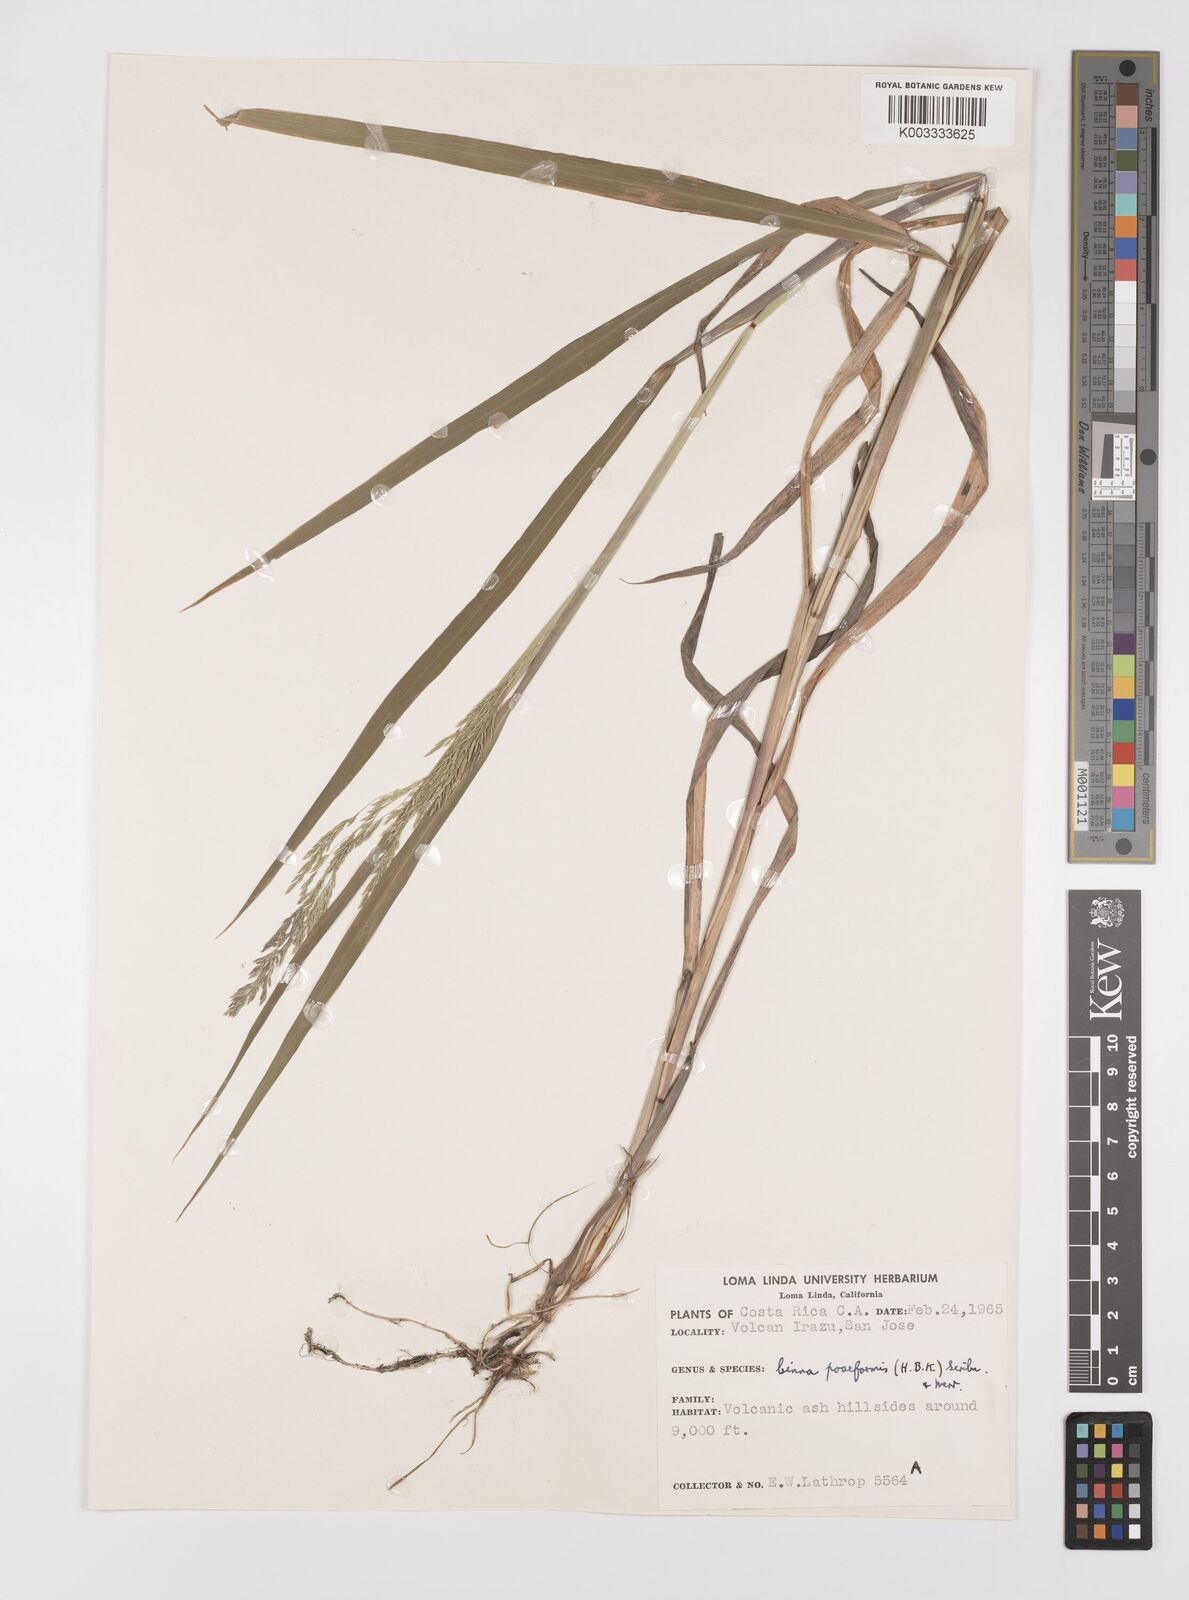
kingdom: Plantae
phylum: Tracheophyta
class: Liliopsida
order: Poales
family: Poaceae
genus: Cinnastrum
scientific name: Cinnastrum poiforme
